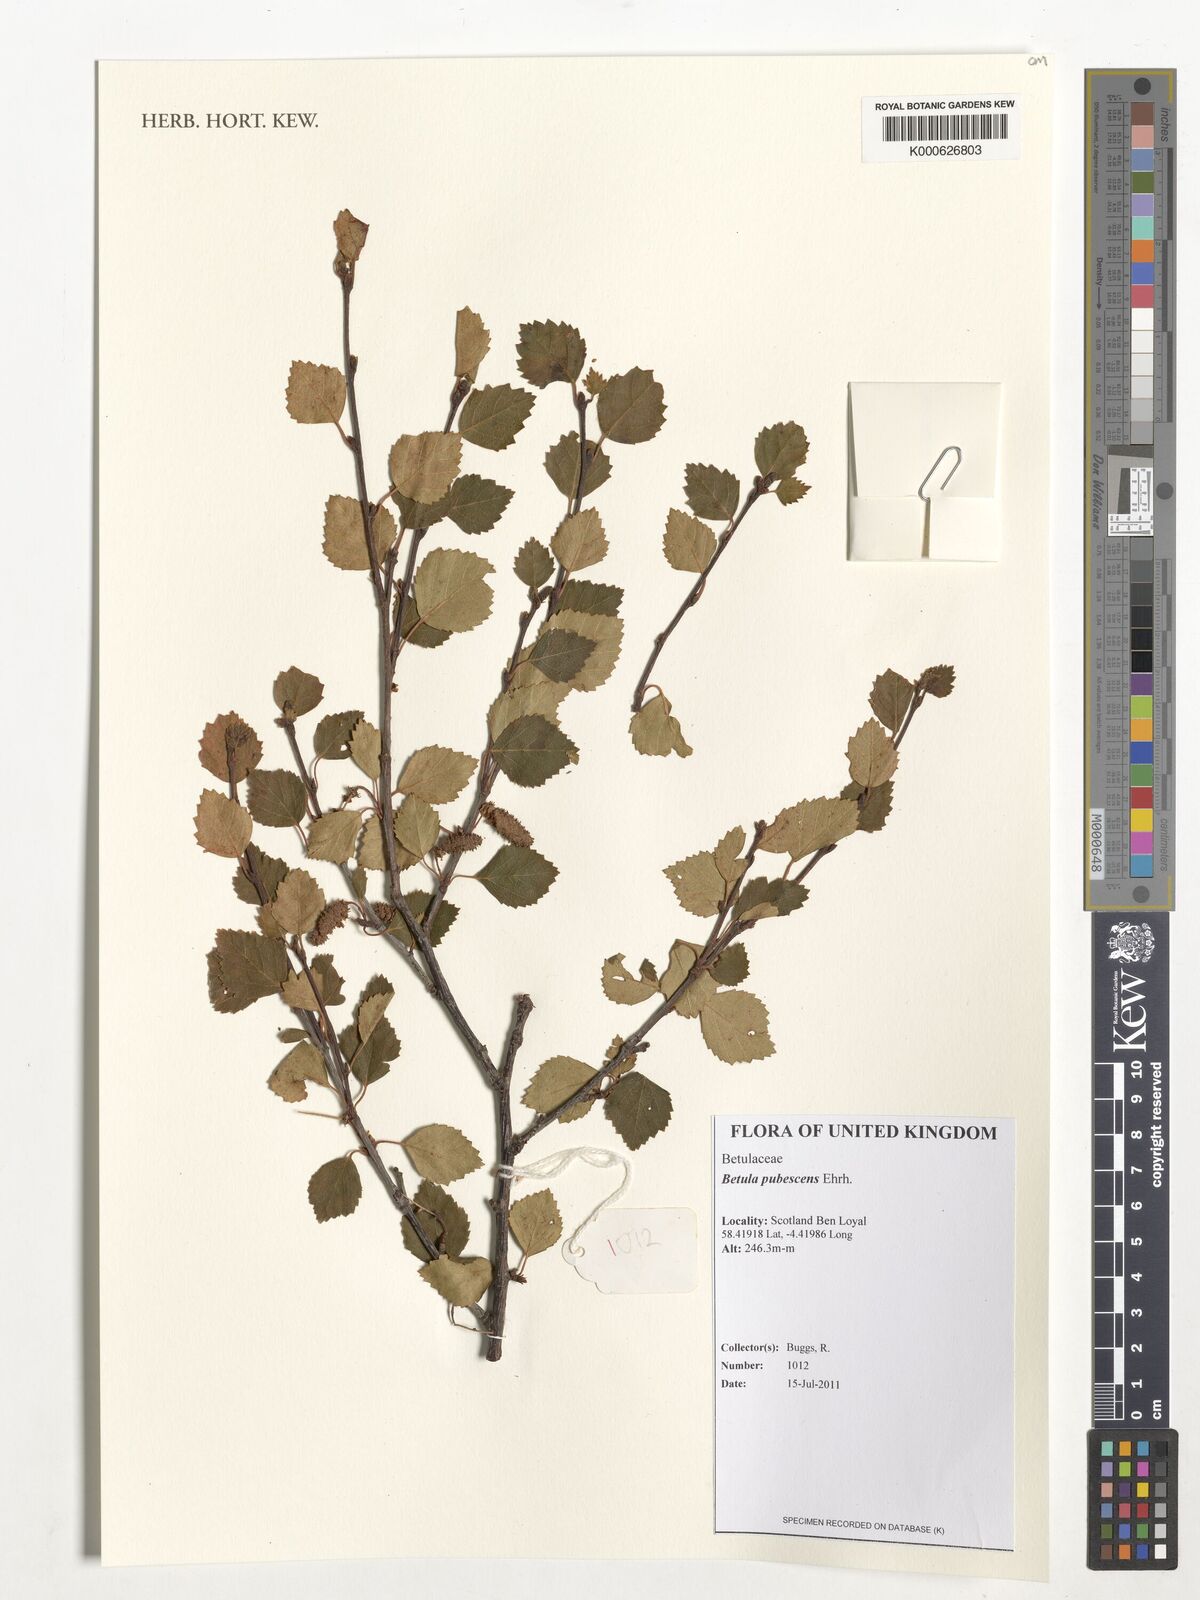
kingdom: Plantae
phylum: Tracheophyta
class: Magnoliopsida
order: Fagales
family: Betulaceae
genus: Betula
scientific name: Betula pubescens
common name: Downy birch
